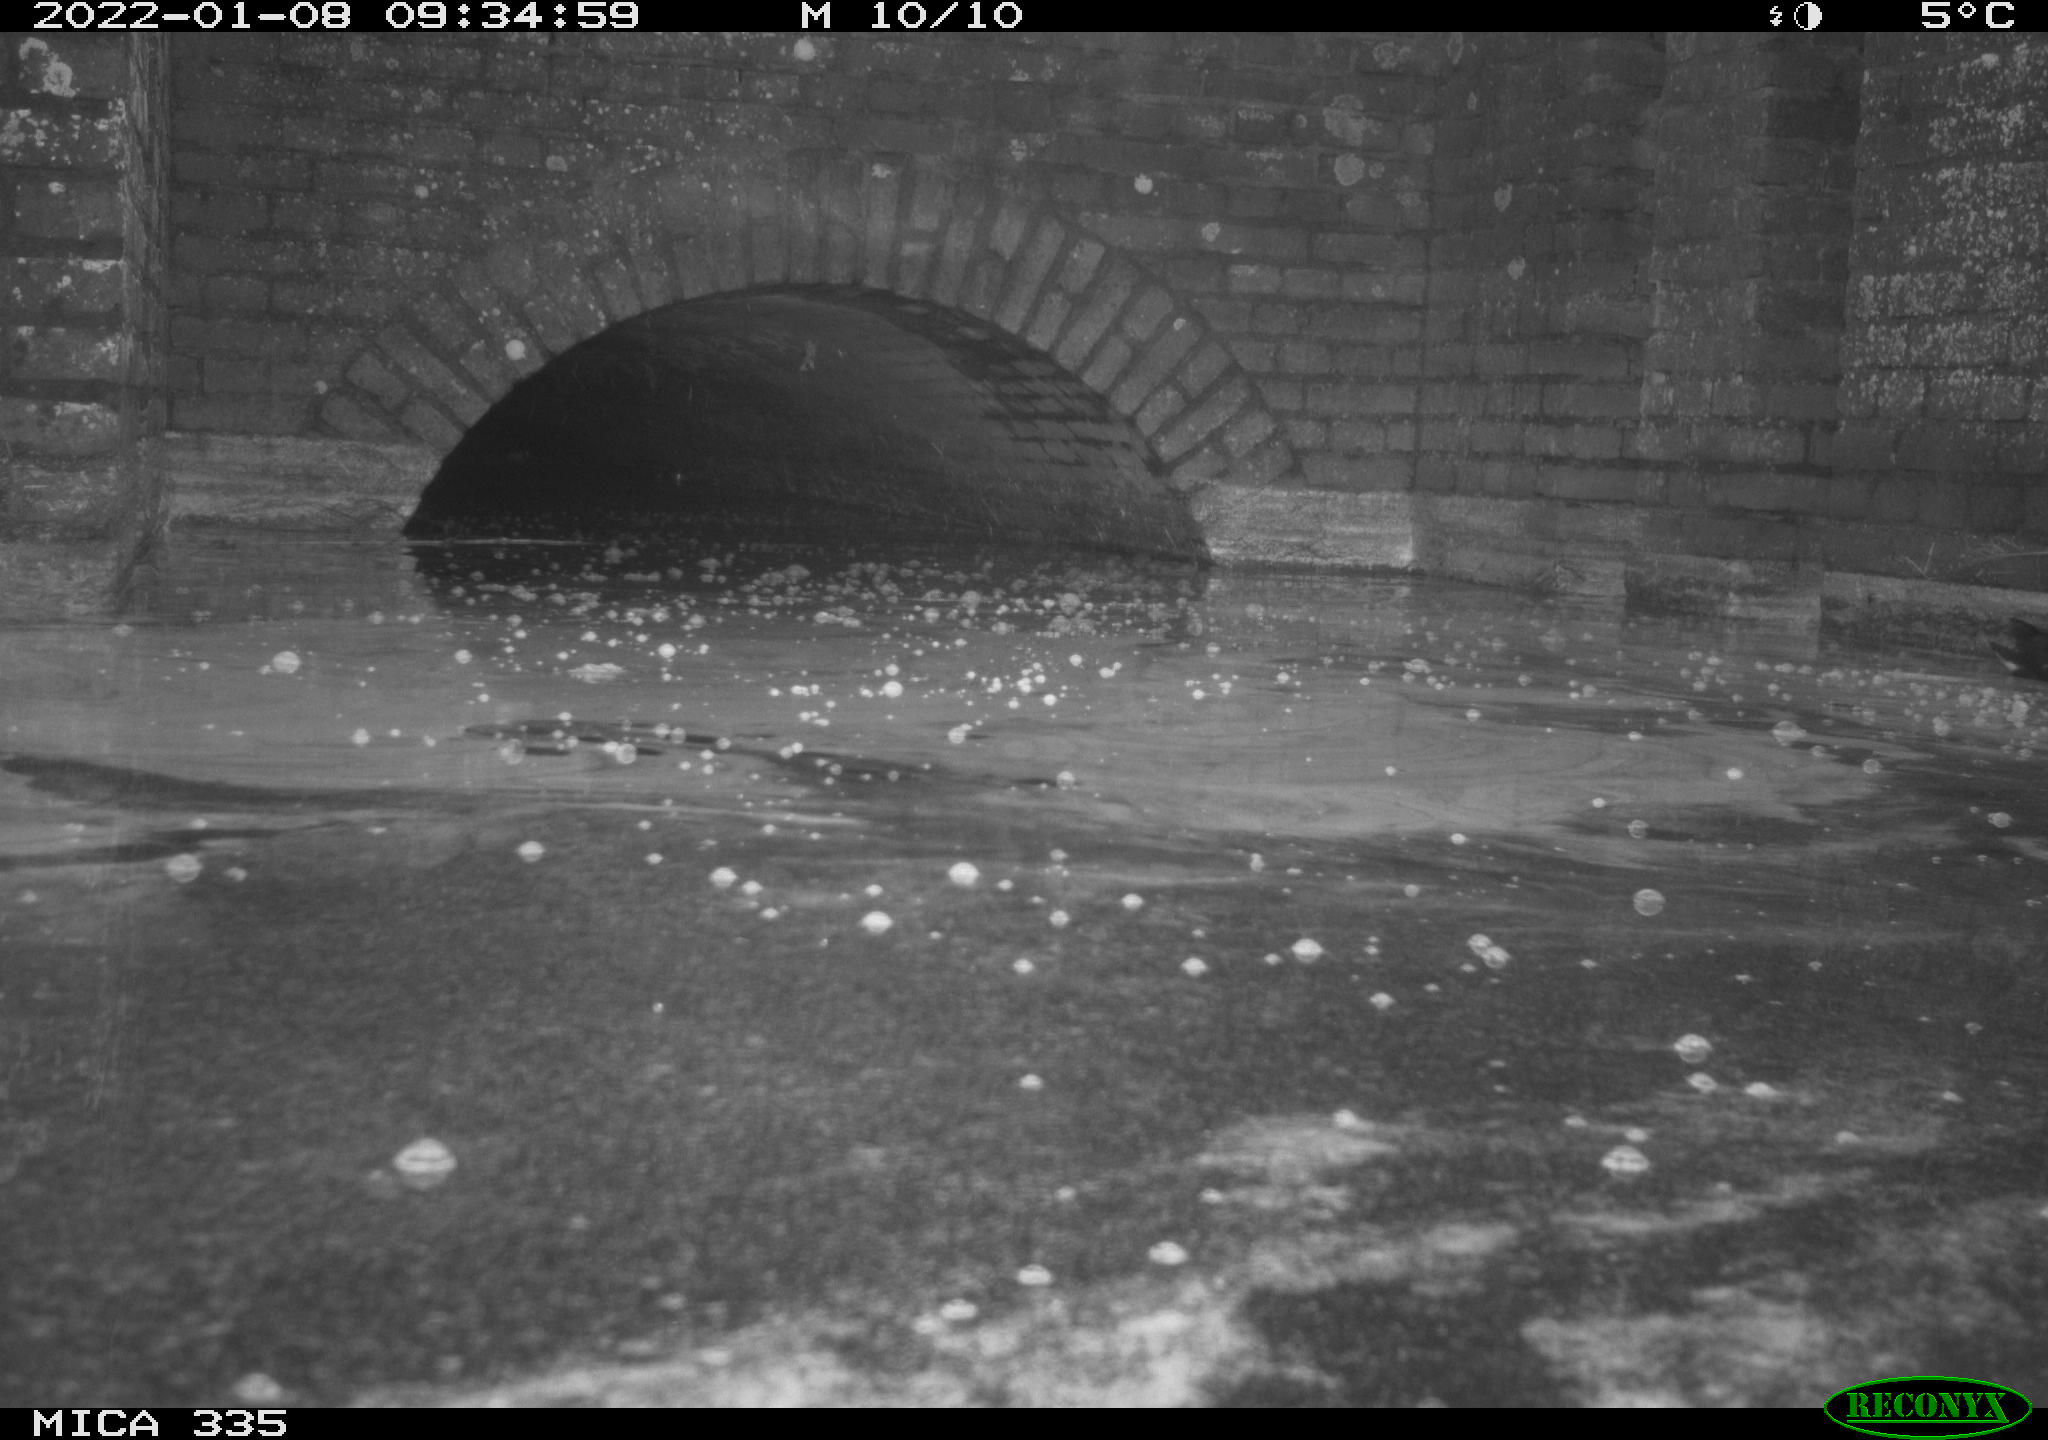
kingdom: Animalia
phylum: Chordata
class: Aves
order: Gruiformes
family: Rallidae
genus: Fulica
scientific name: Fulica atra
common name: Eurasian coot
